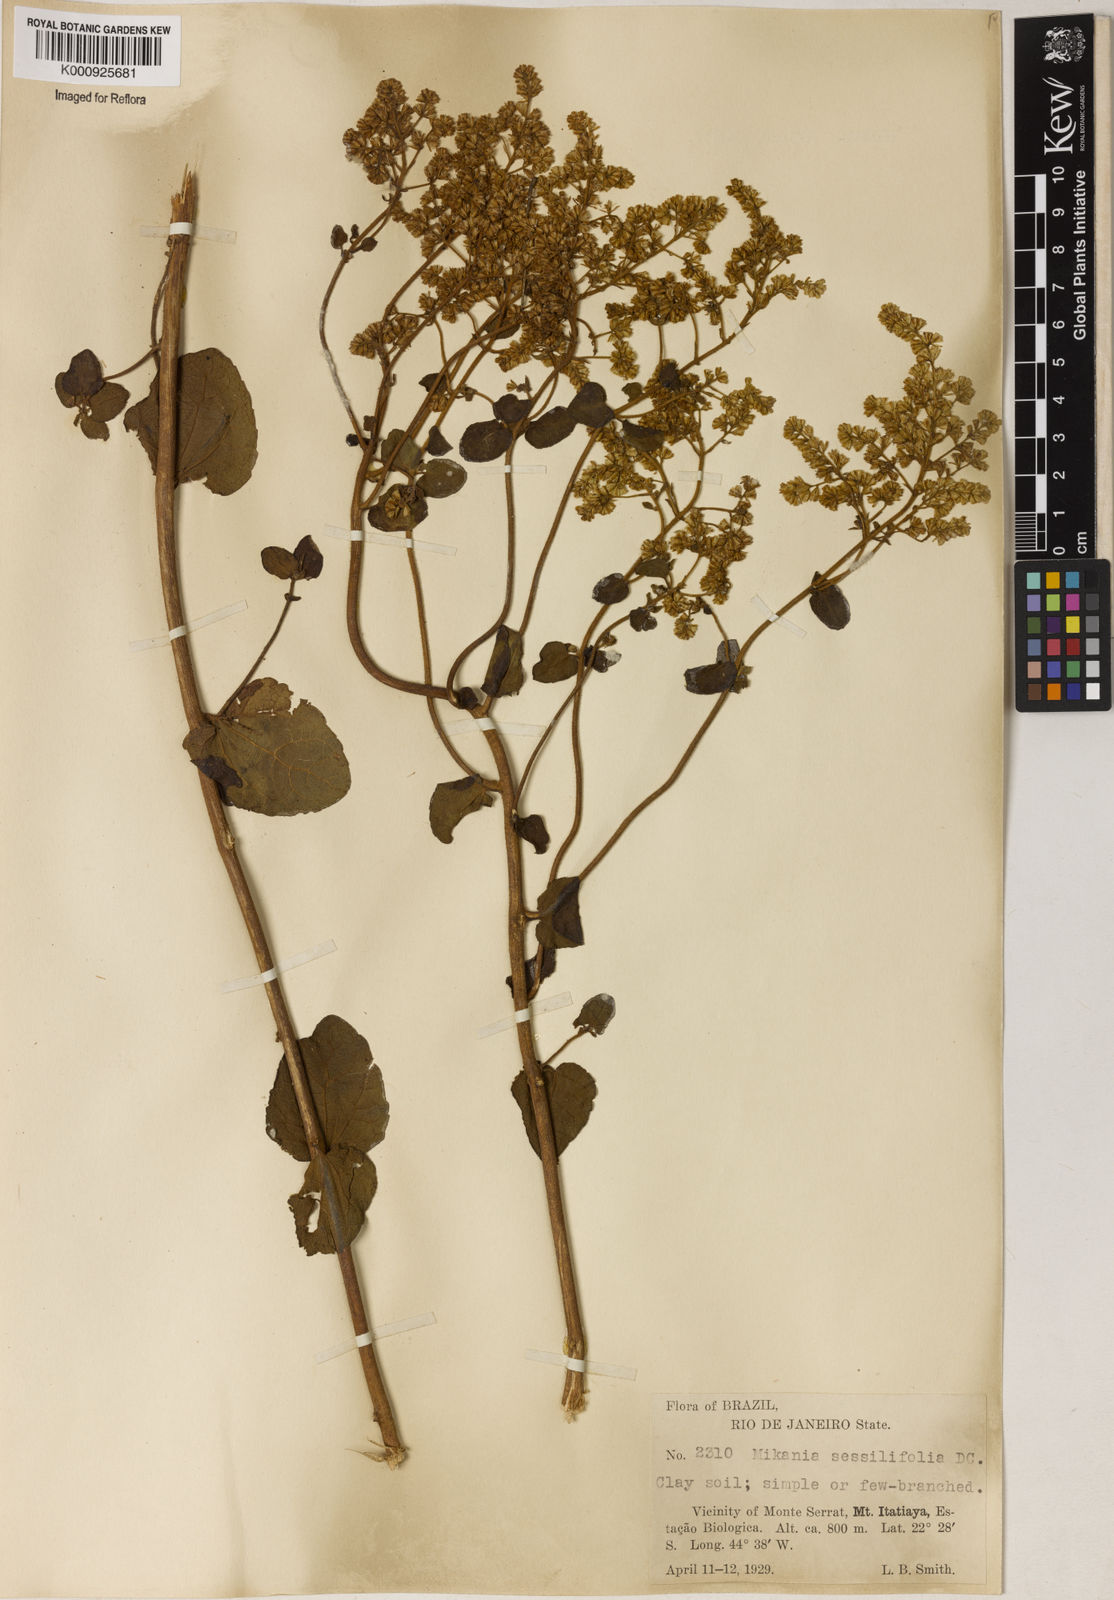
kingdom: Plantae
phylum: Tracheophyta
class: Magnoliopsida
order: Asterales
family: Asteraceae
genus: Mikania
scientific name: Mikania sessilifolia
